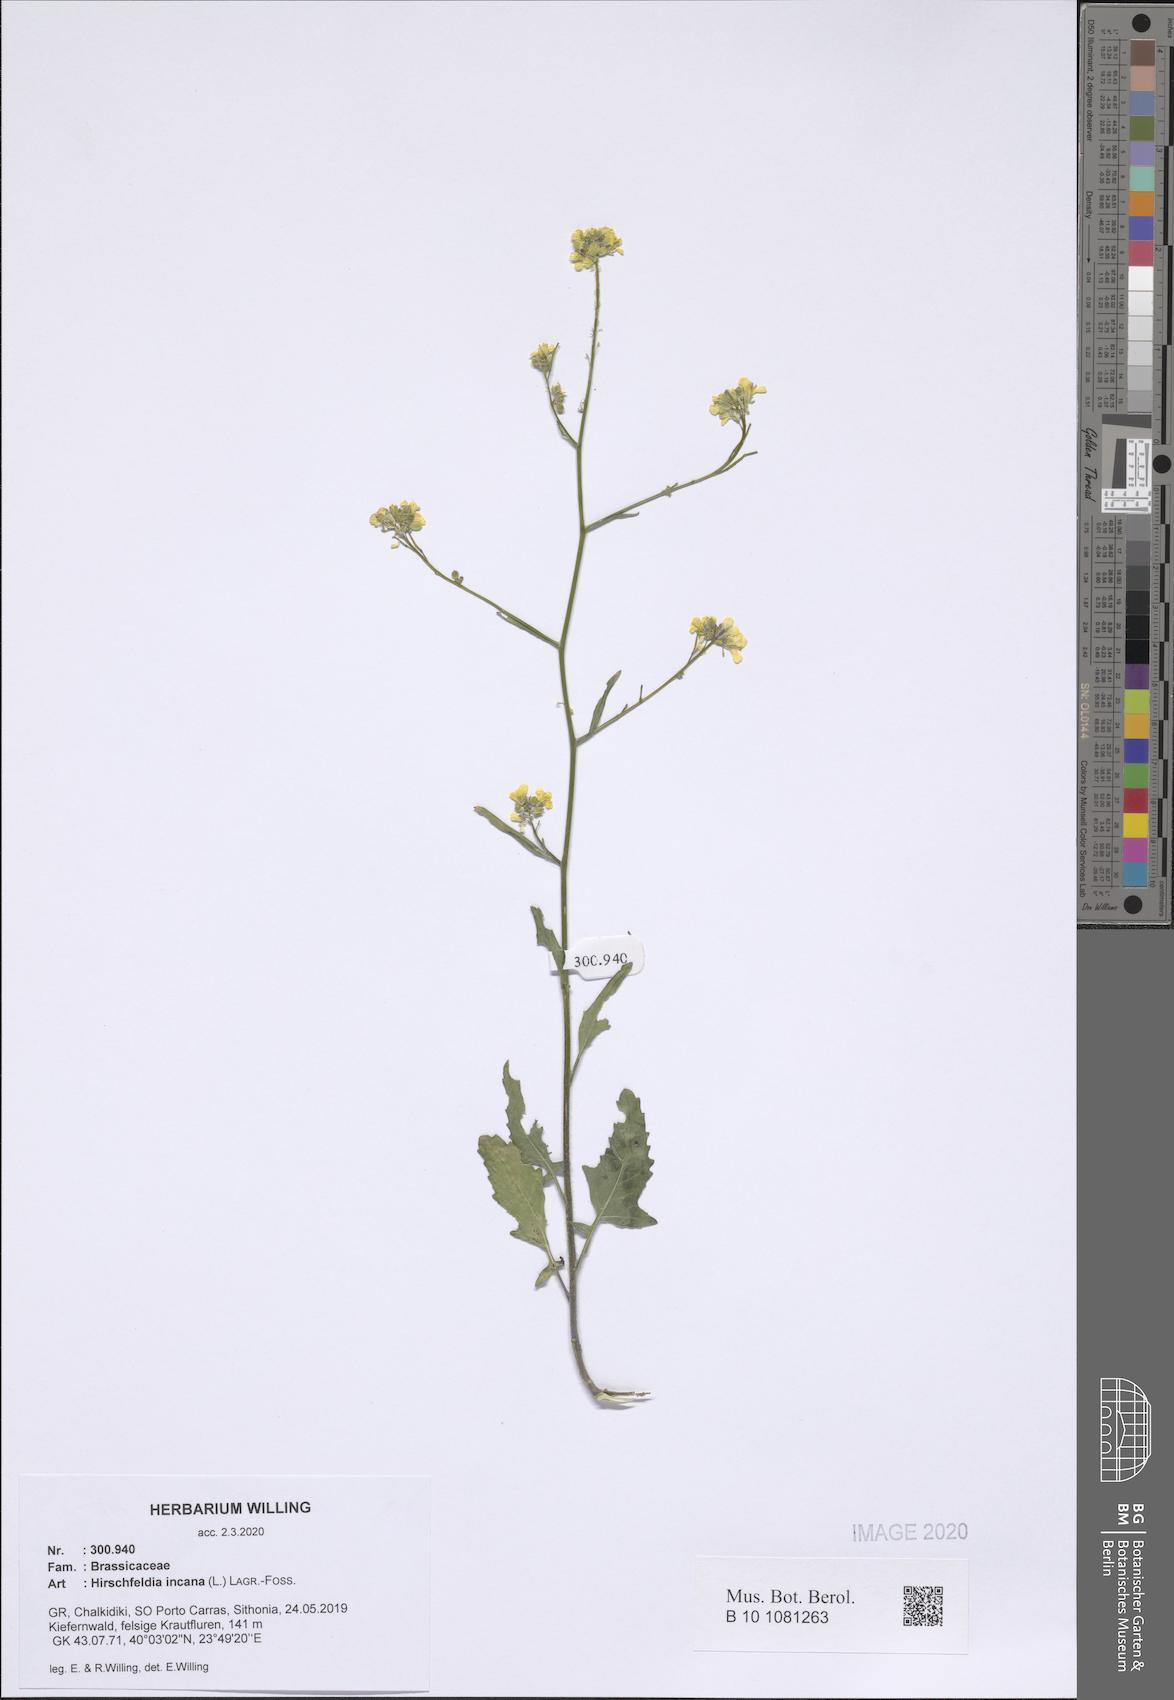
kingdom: Plantae
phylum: Tracheophyta
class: Magnoliopsida
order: Brassicales
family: Brassicaceae
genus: Hirschfeldia
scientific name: Hirschfeldia incana
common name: Hoary mustard
